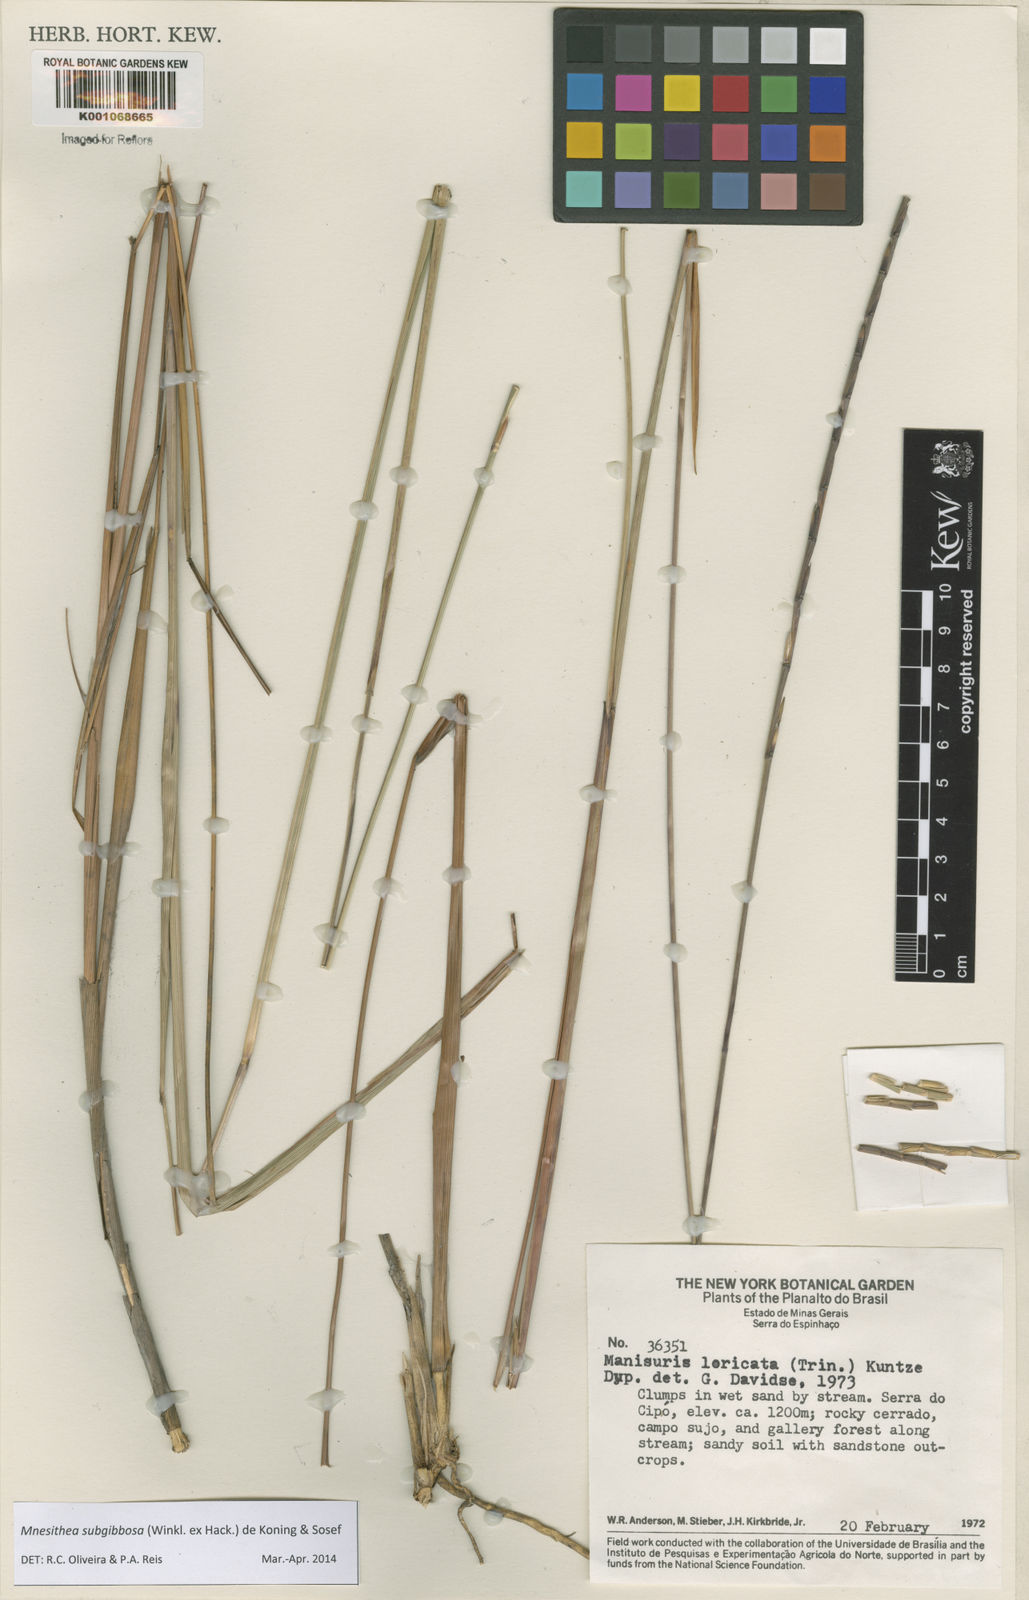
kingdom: Plantae
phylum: Tracheophyta
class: Liliopsida
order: Poales
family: Poaceae
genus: Rhytachne
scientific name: Rhytachne subgibbosa
